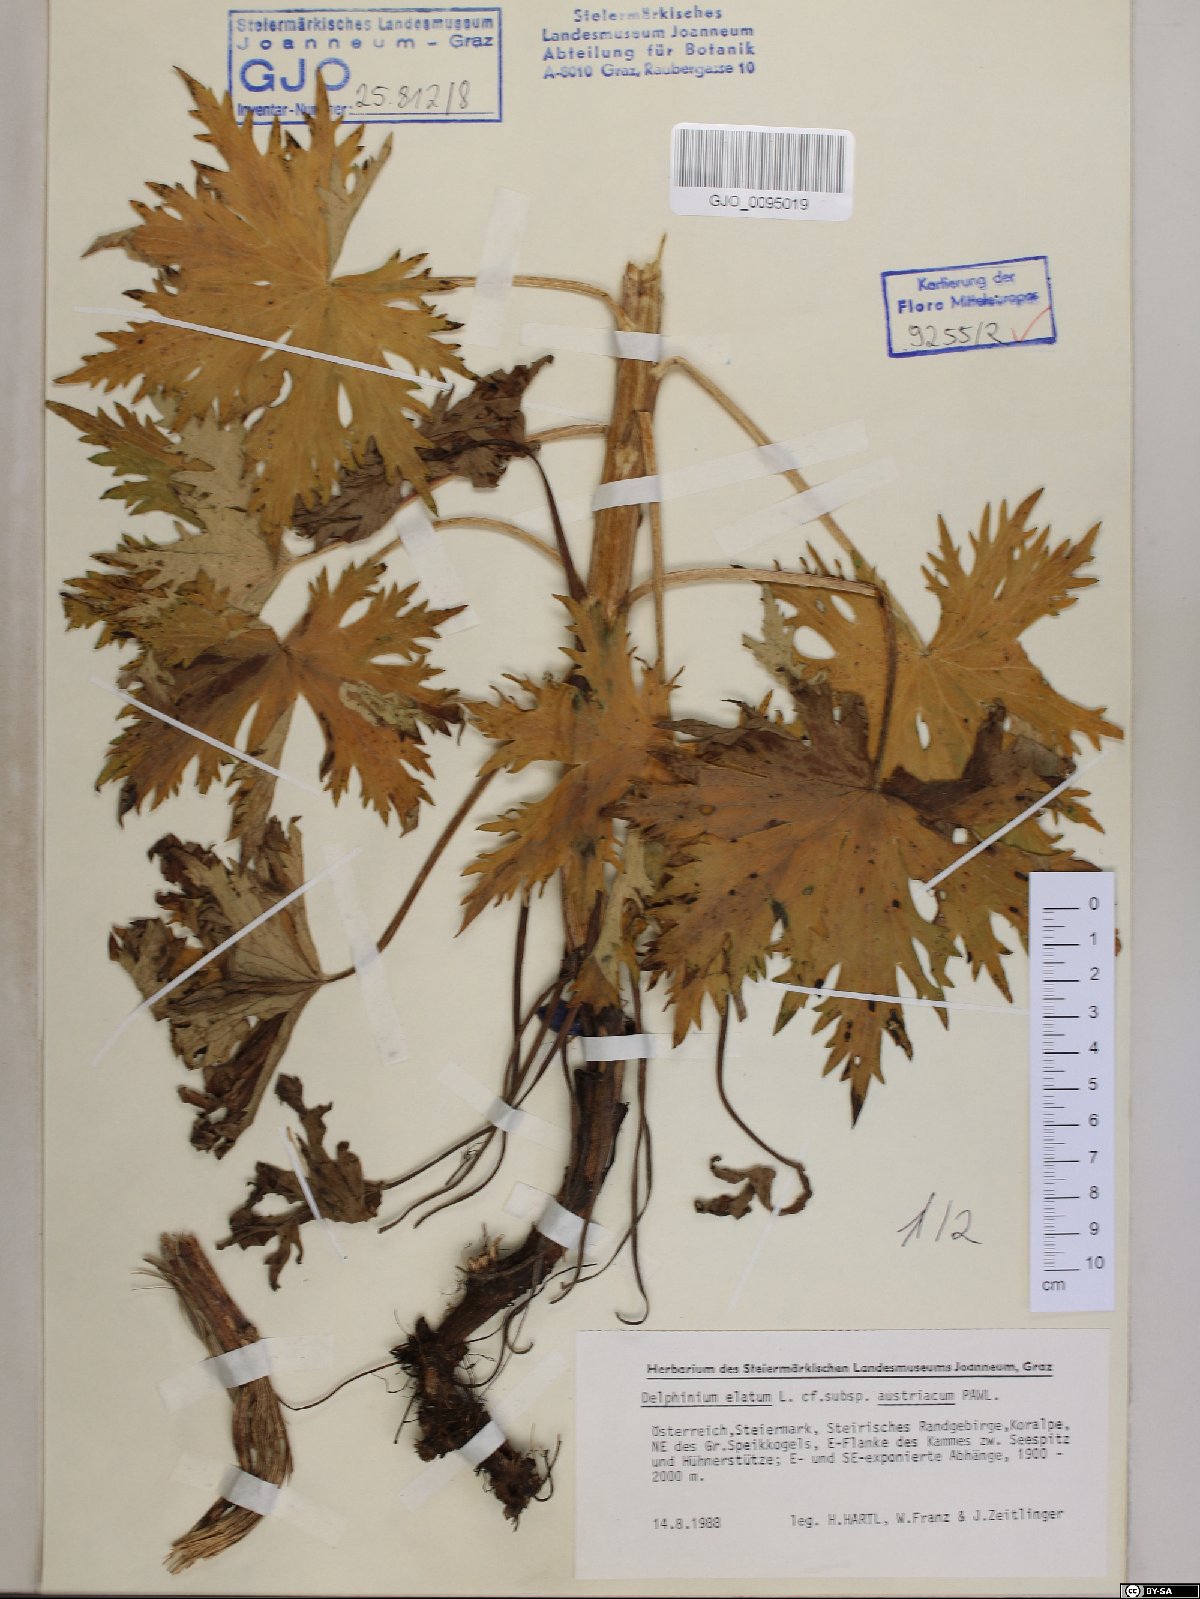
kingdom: Plantae
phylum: Tracheophyta
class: Magnoliopsida
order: Ranunculales
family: Ranunculaceae
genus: Delphinium
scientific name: Delphinium austriacum
